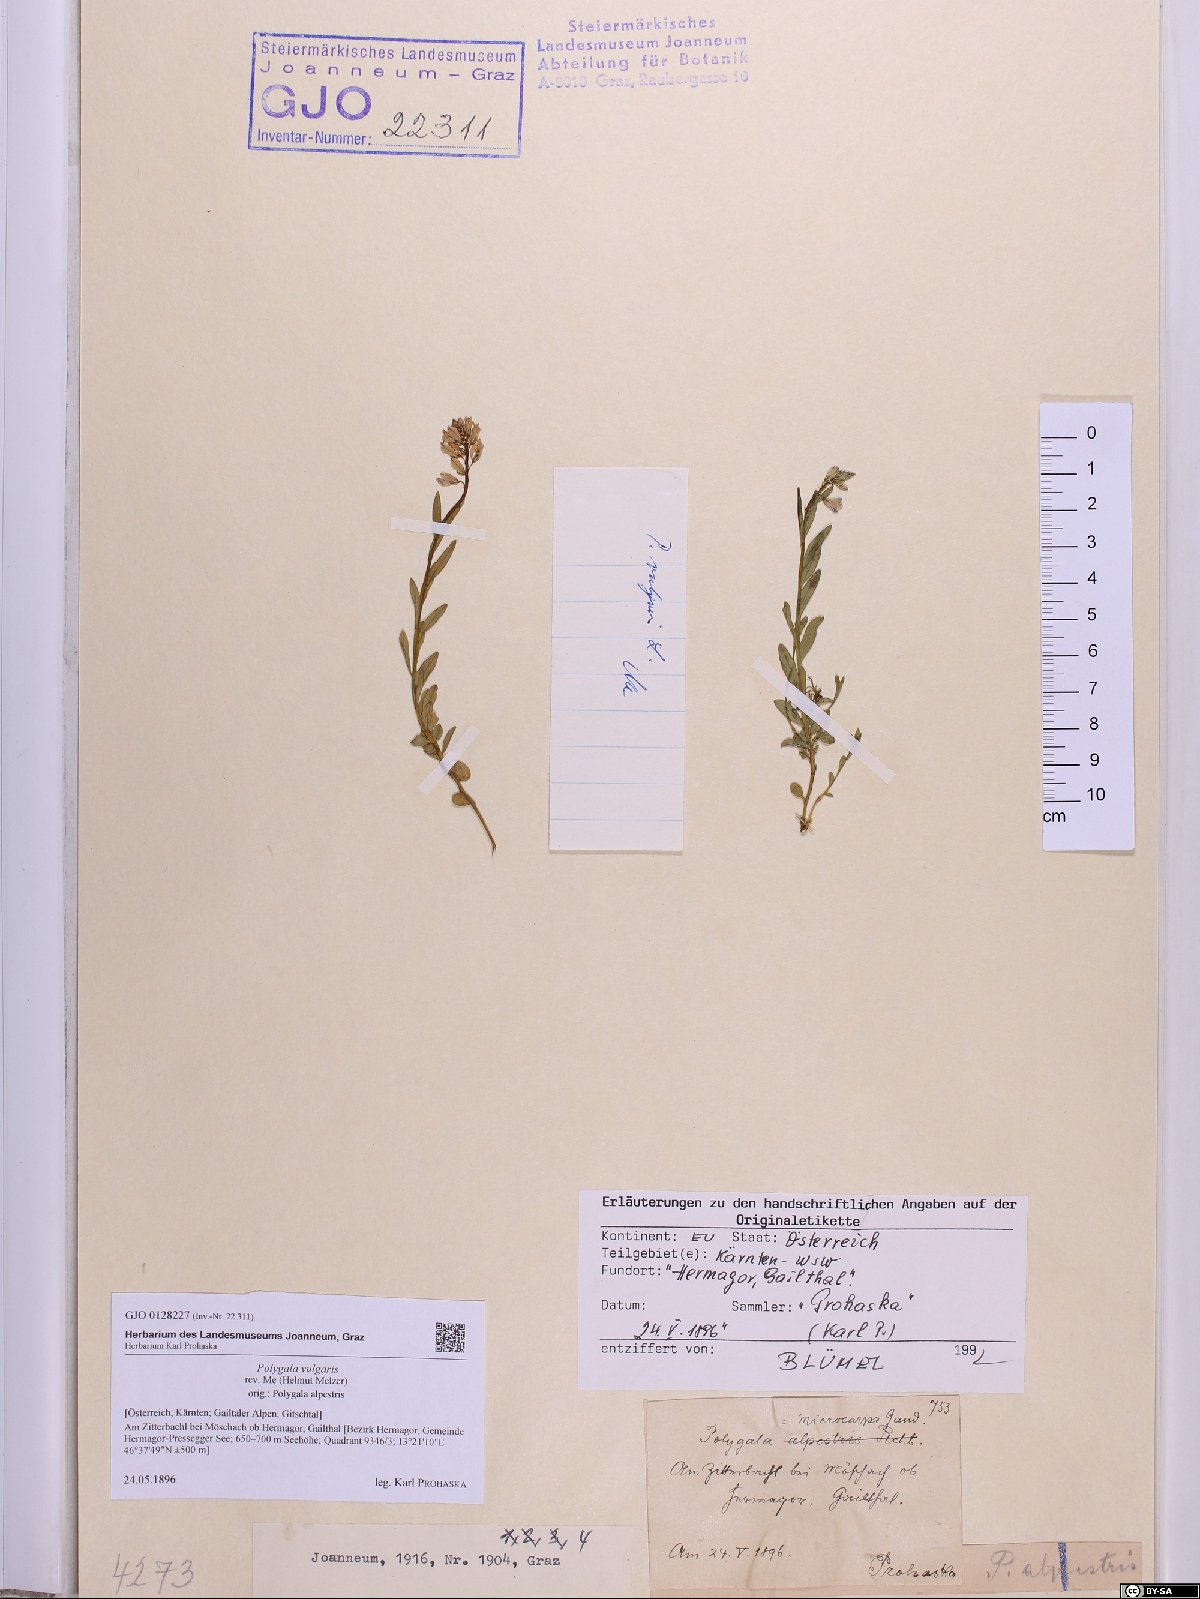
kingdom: Plantae
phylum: Tracheophyta
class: Magnoliopsida
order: Fabales
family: Polygalaceae
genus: Polygala
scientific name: Polygala vulgaris
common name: Common milkwort
